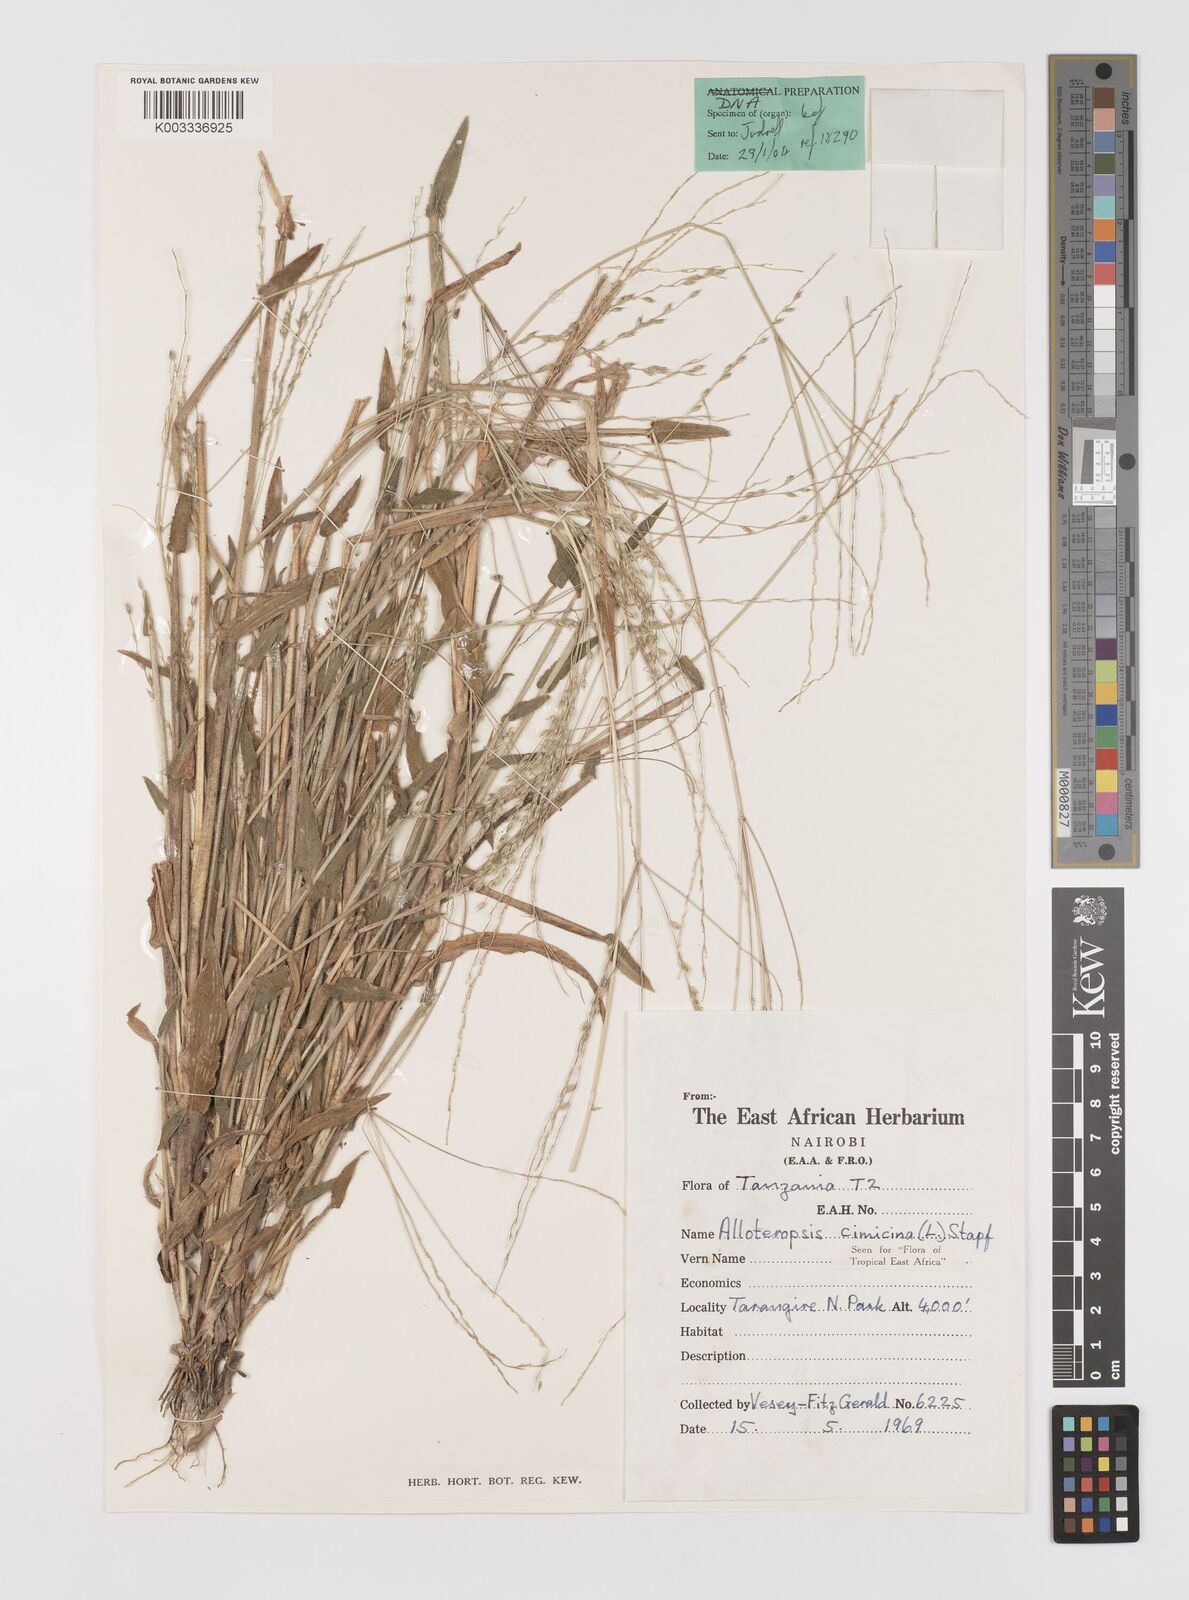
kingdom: Plantae
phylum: Tracheophyta
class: Liliopsida
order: Poales
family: Poaceae
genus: Alloteropsis
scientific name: Alloteropsis cimicina
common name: Summergrass
